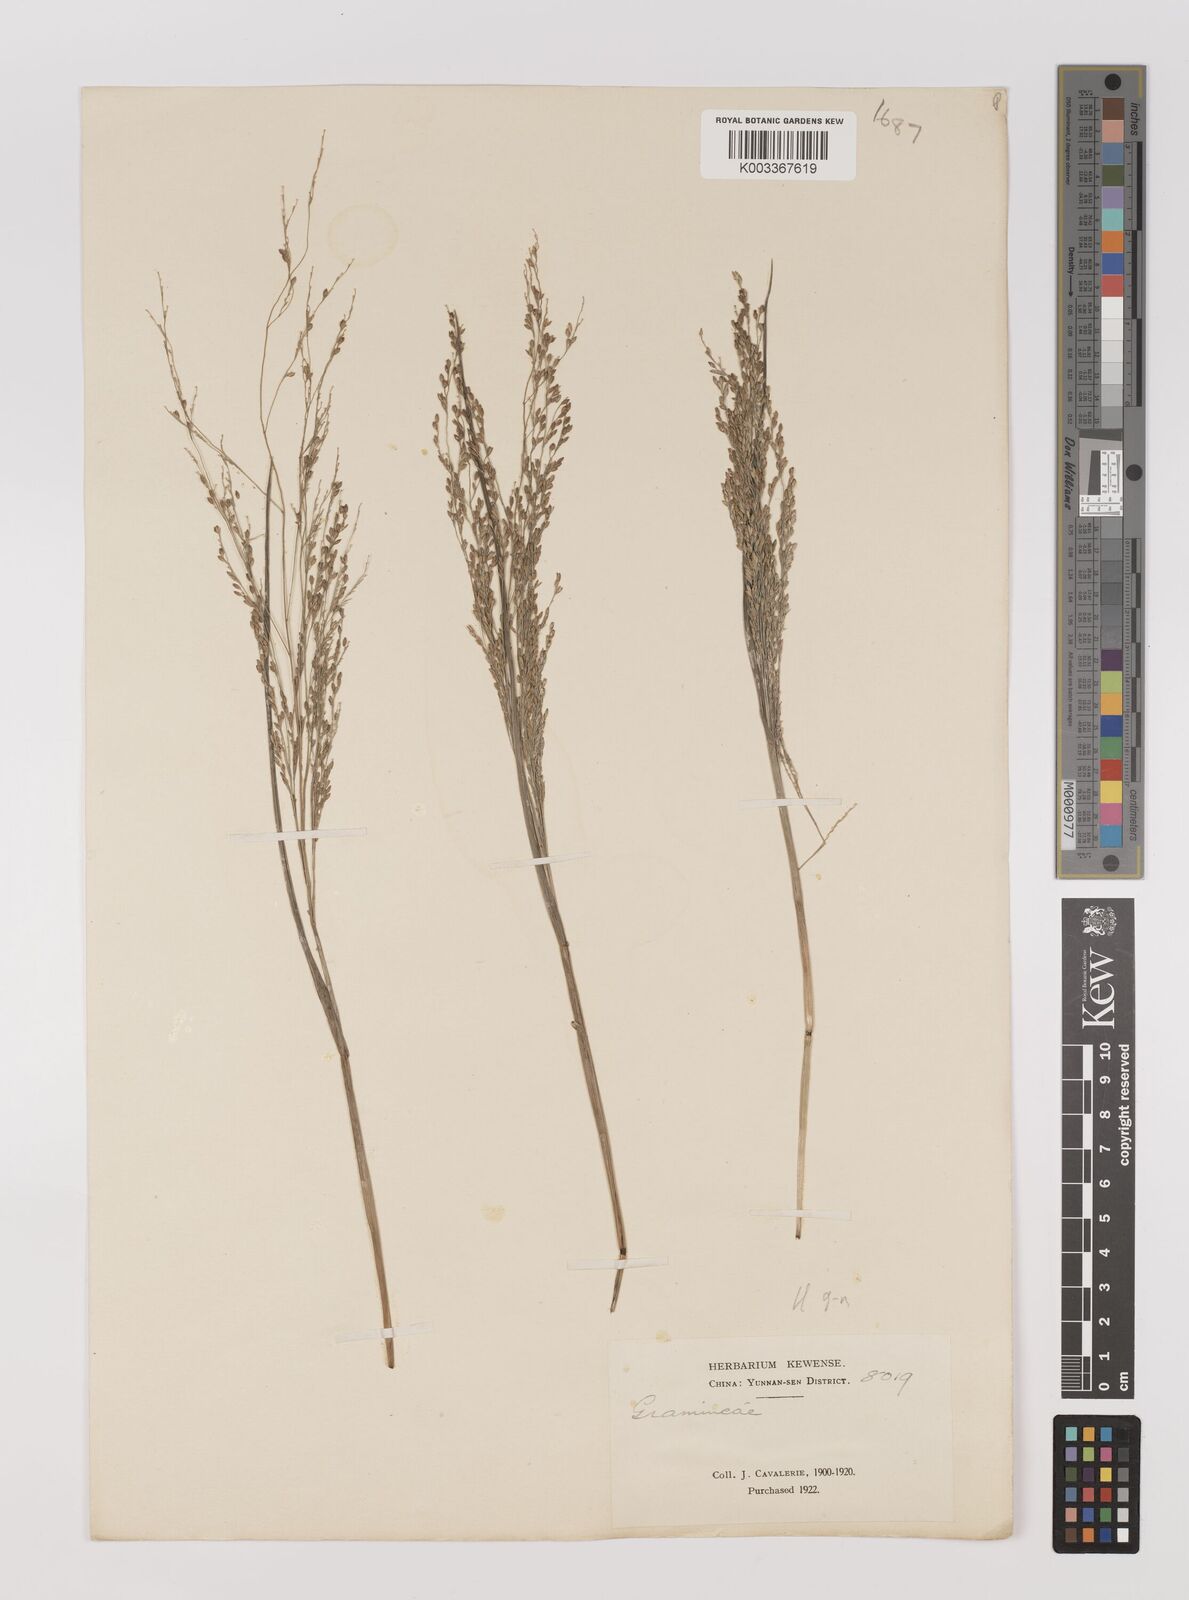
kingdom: Plantae
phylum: Tracheophyta
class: Liliopsida
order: Poales
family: Poaceae
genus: Panicum
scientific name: Panicum sumatrense
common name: Little millet
